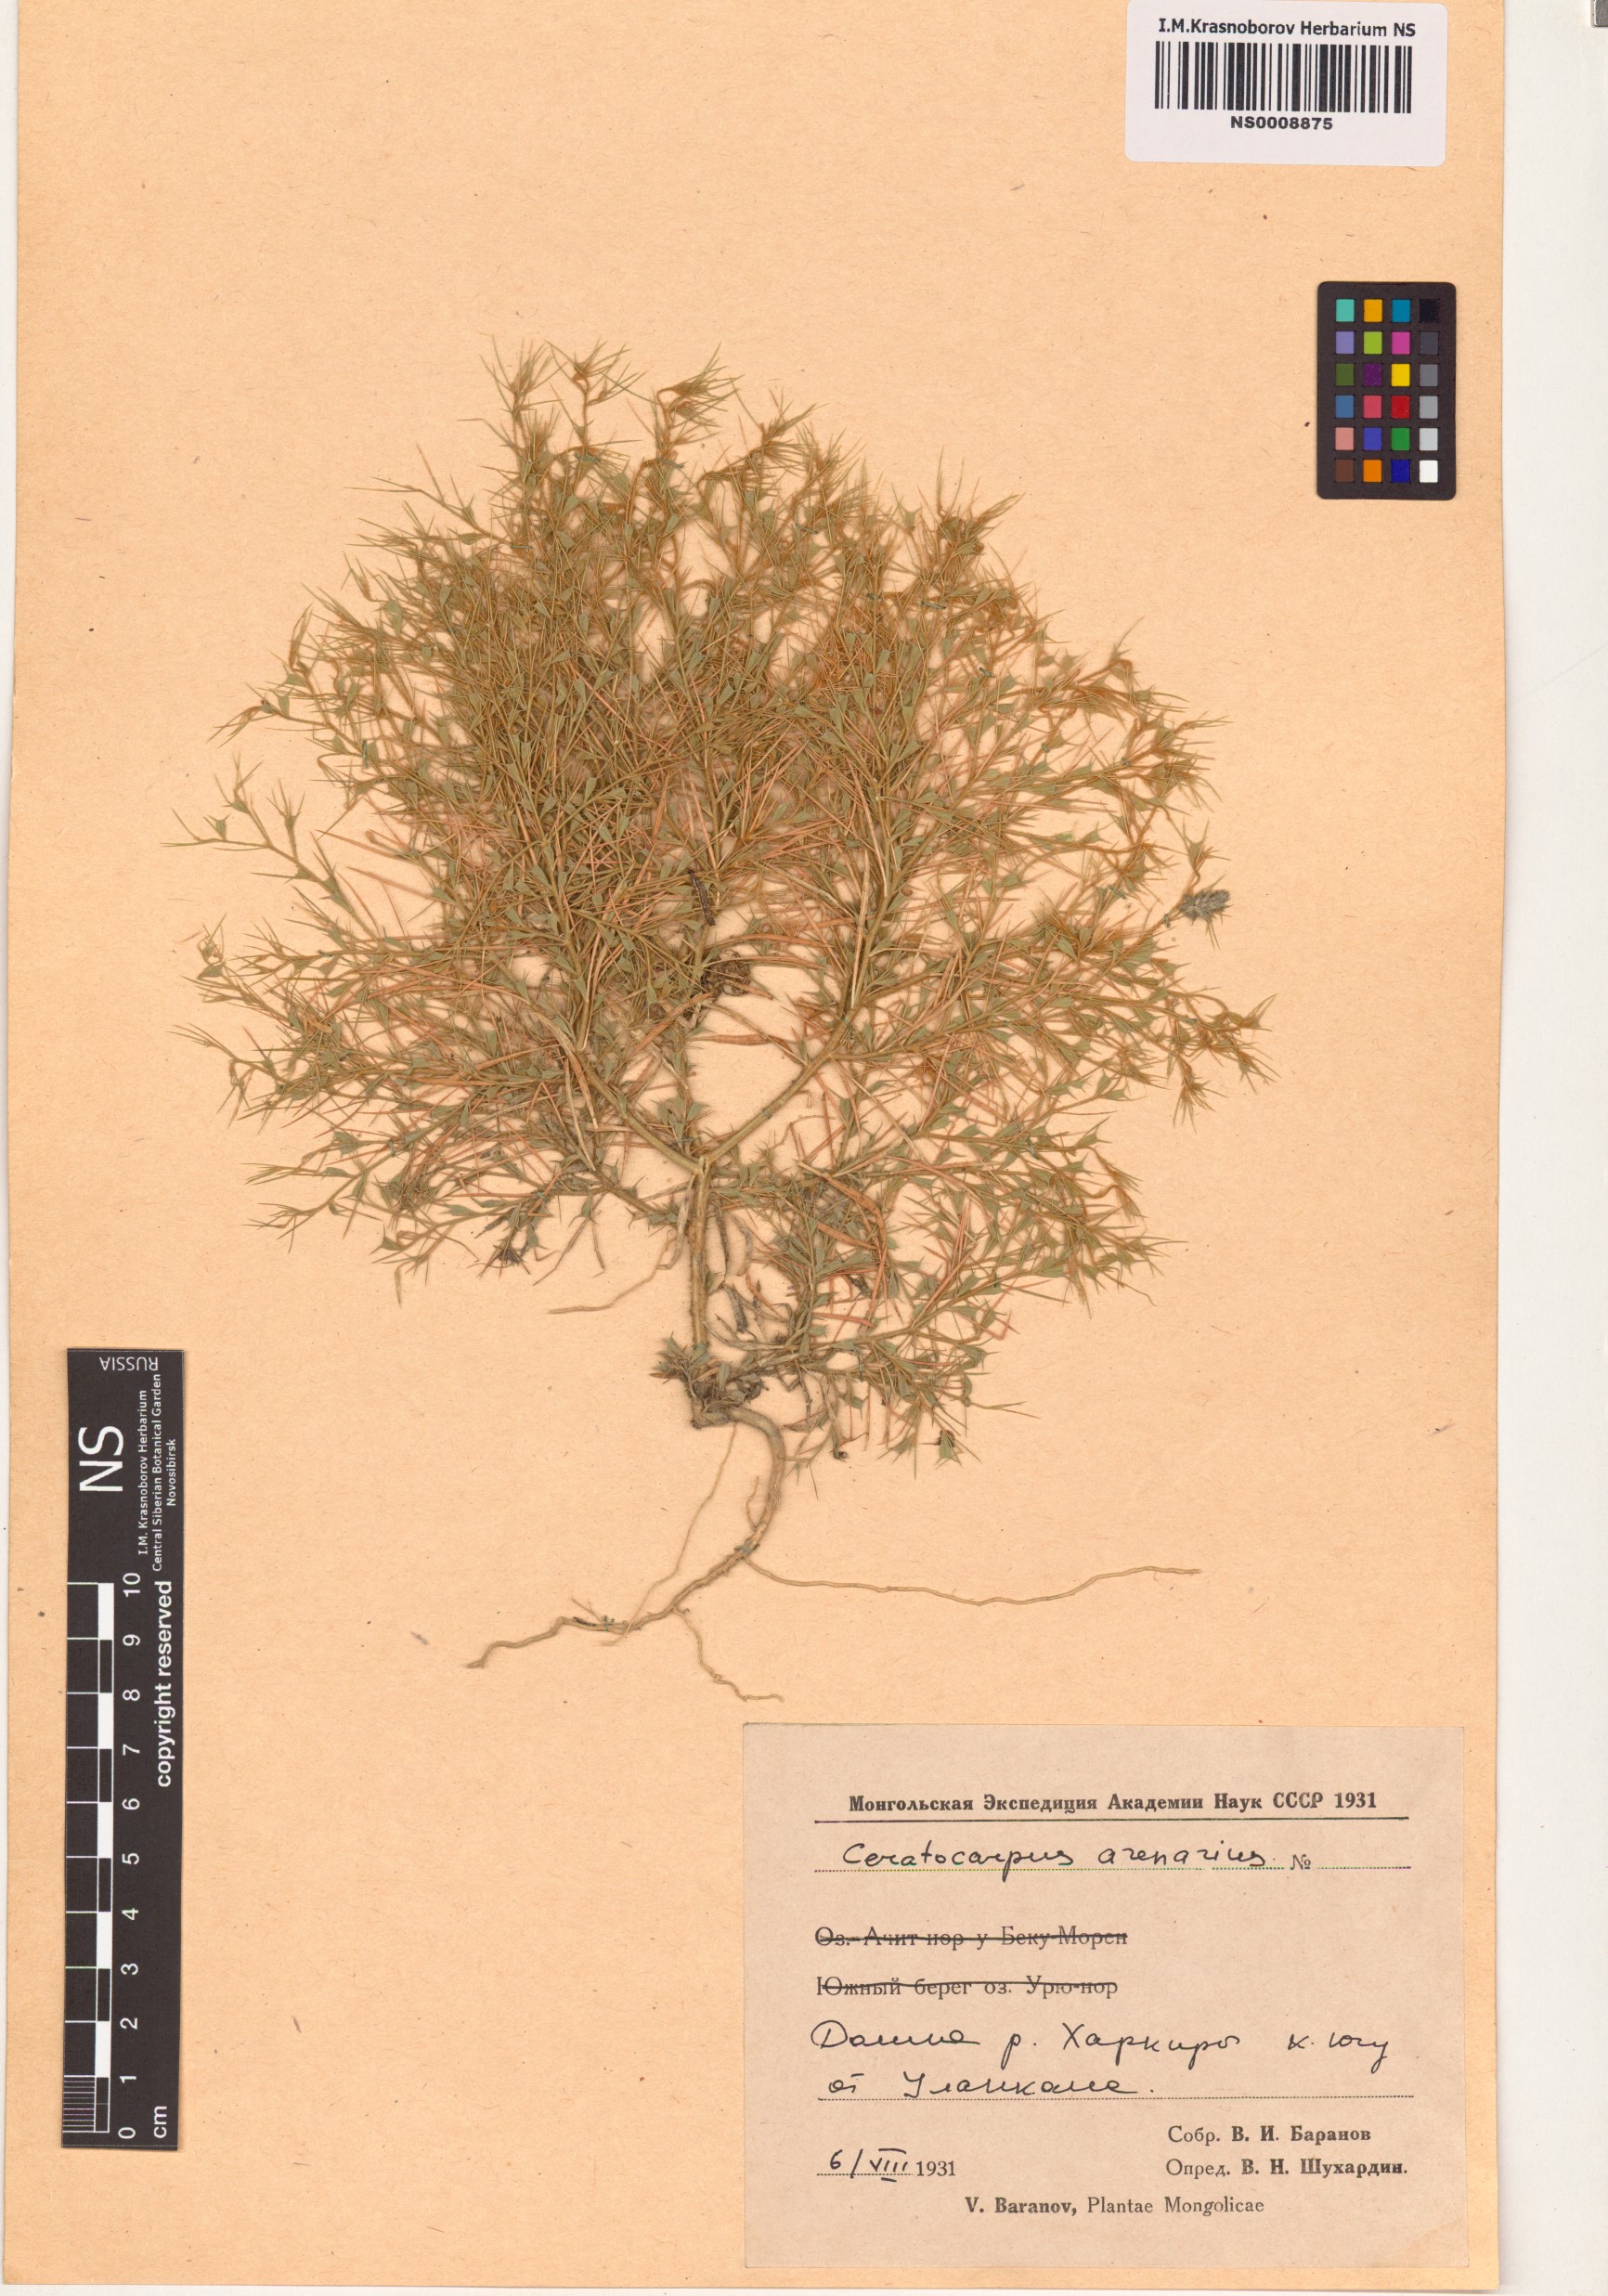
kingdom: Plantae
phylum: Tracheophyta
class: Magnoliopsida
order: Caryophyllales
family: Amaranthaceae
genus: Ceratocarpus
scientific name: Ceratocarpus arenarius
